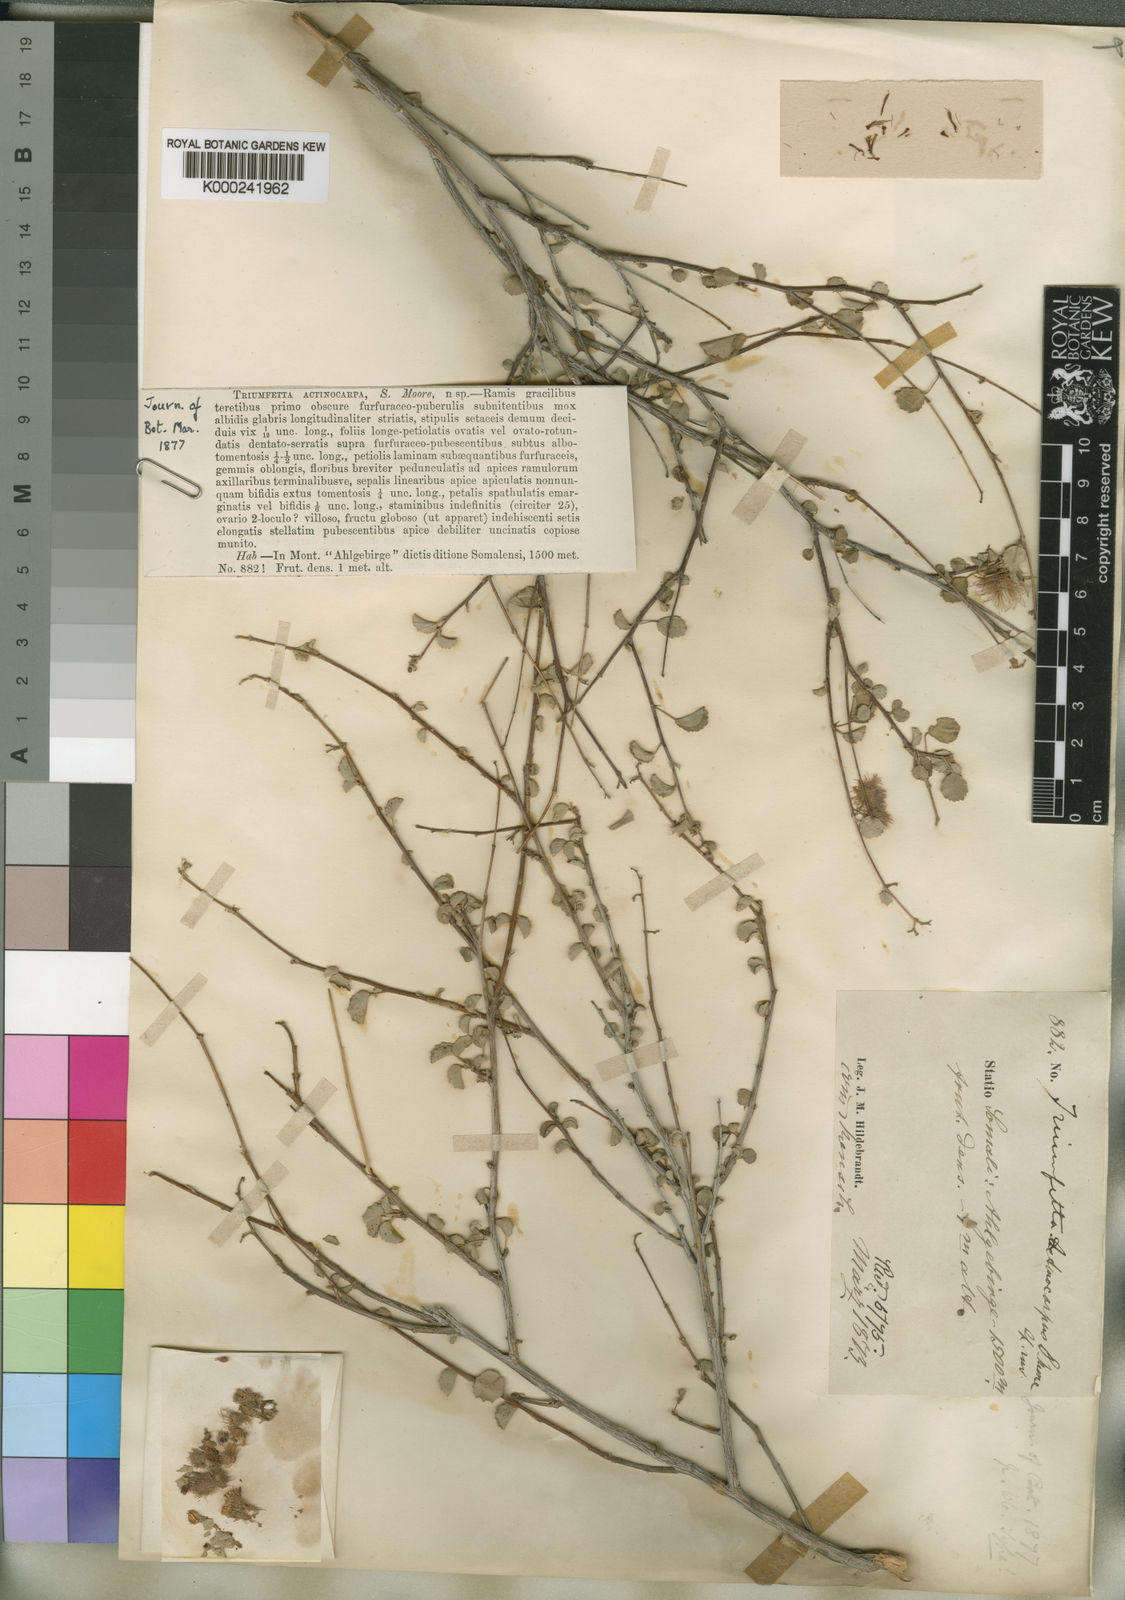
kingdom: Plantae
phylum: Tracheophyta
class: Magnoliopsida
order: Malvales
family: Malvaceae
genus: Triumfetta
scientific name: Triumfetta actinocarpa
